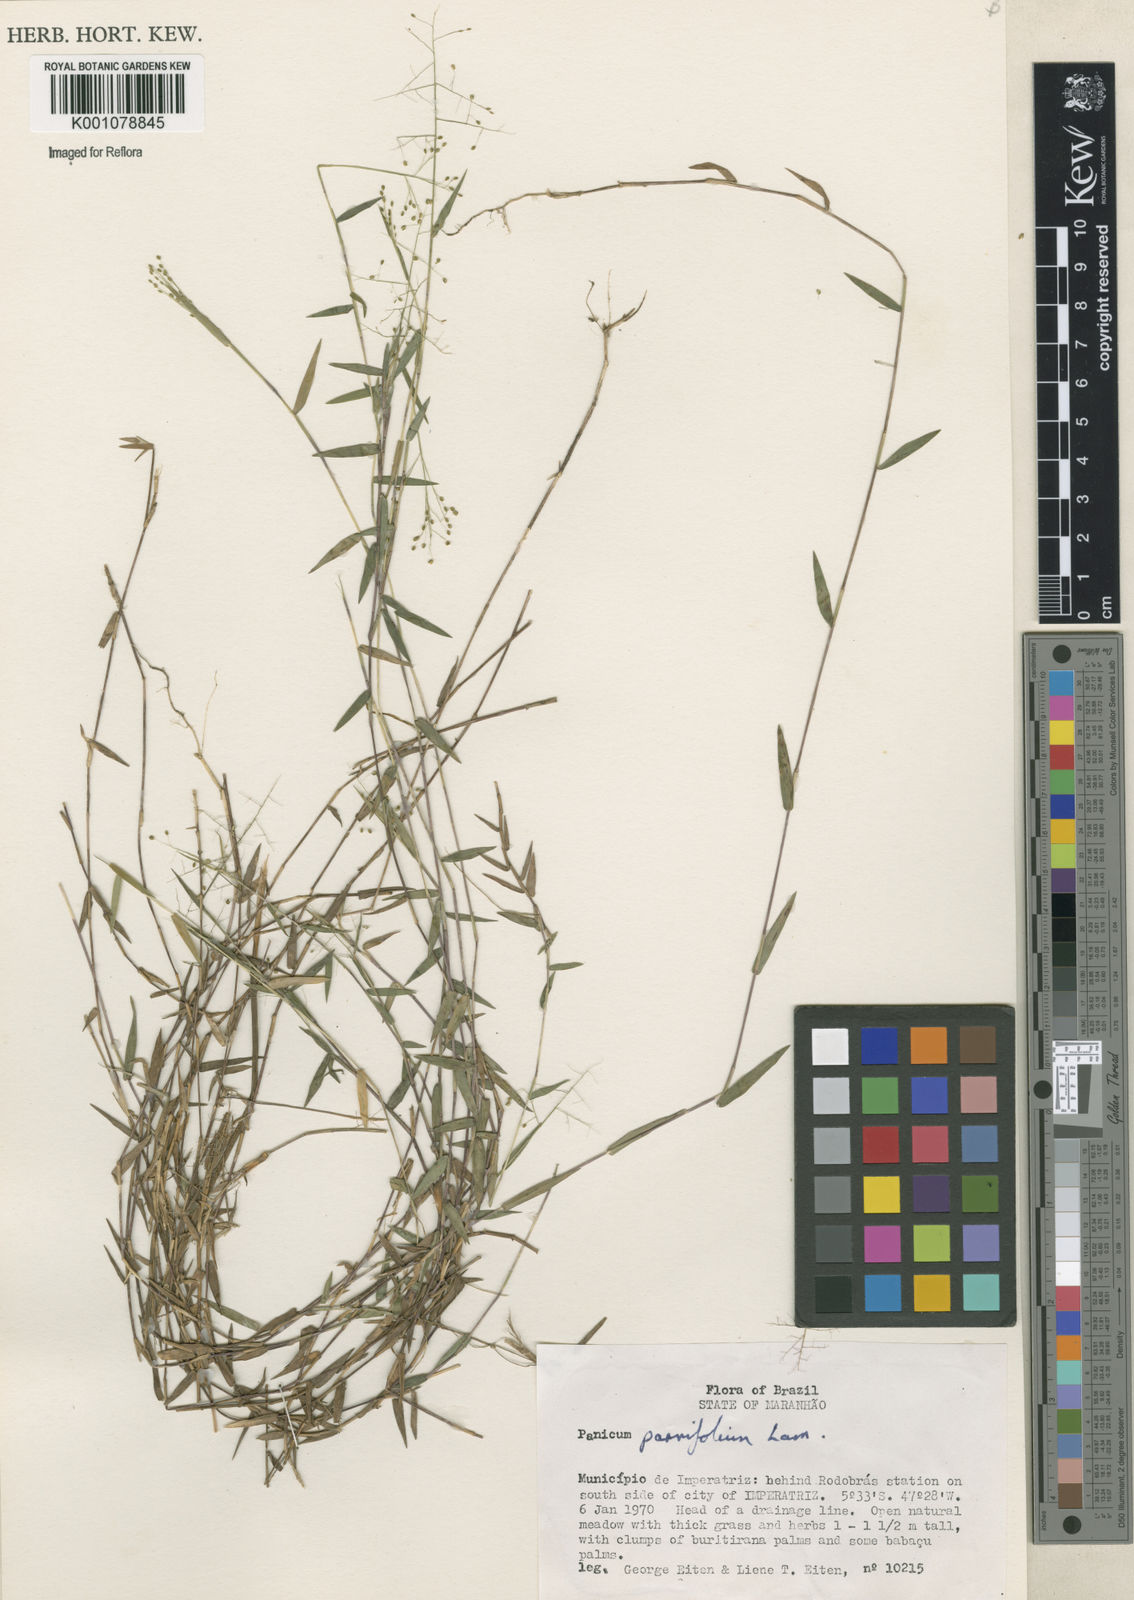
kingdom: Plantae
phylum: Tracheophyta
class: Liliopsida
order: Poales
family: Poaceae
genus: Trichanthecium
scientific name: Trichanthecium parvifolium
